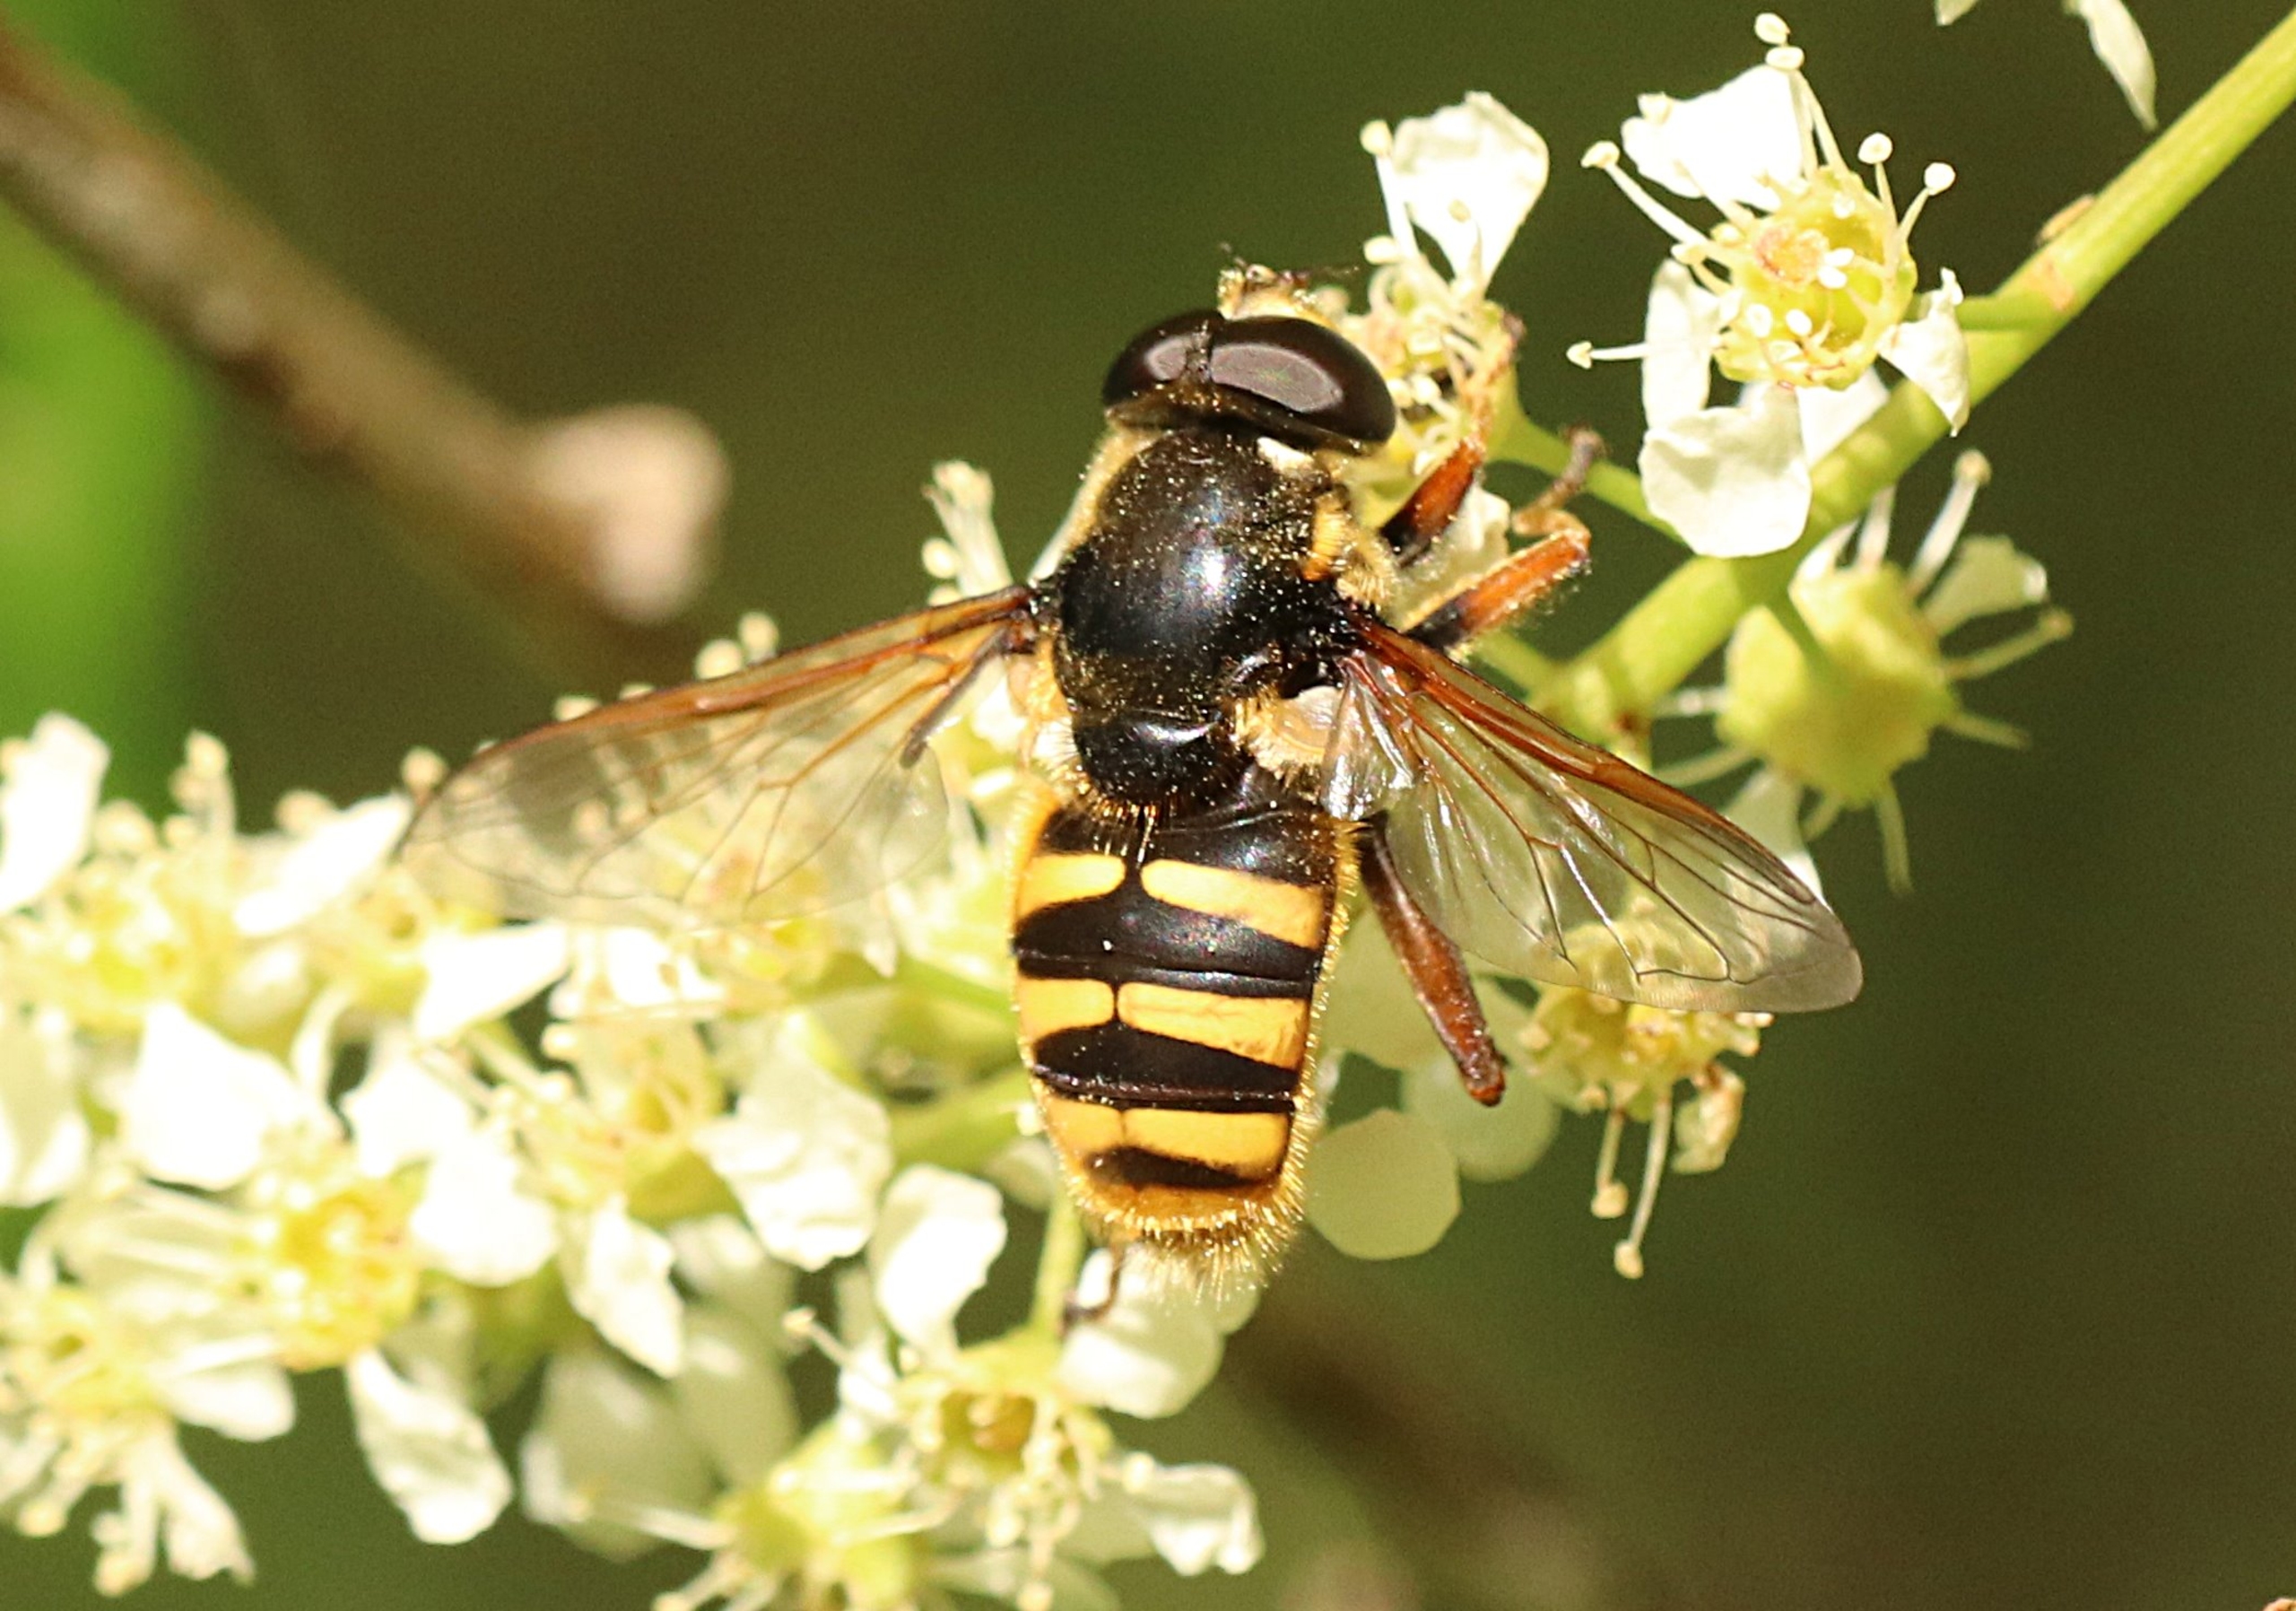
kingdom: Animalia
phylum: Arthropoda
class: Insecta
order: Diptera
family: Syrphidae
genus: Sericomyia
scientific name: Sericomyia silentis
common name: Tørve-silkesvirreflue
